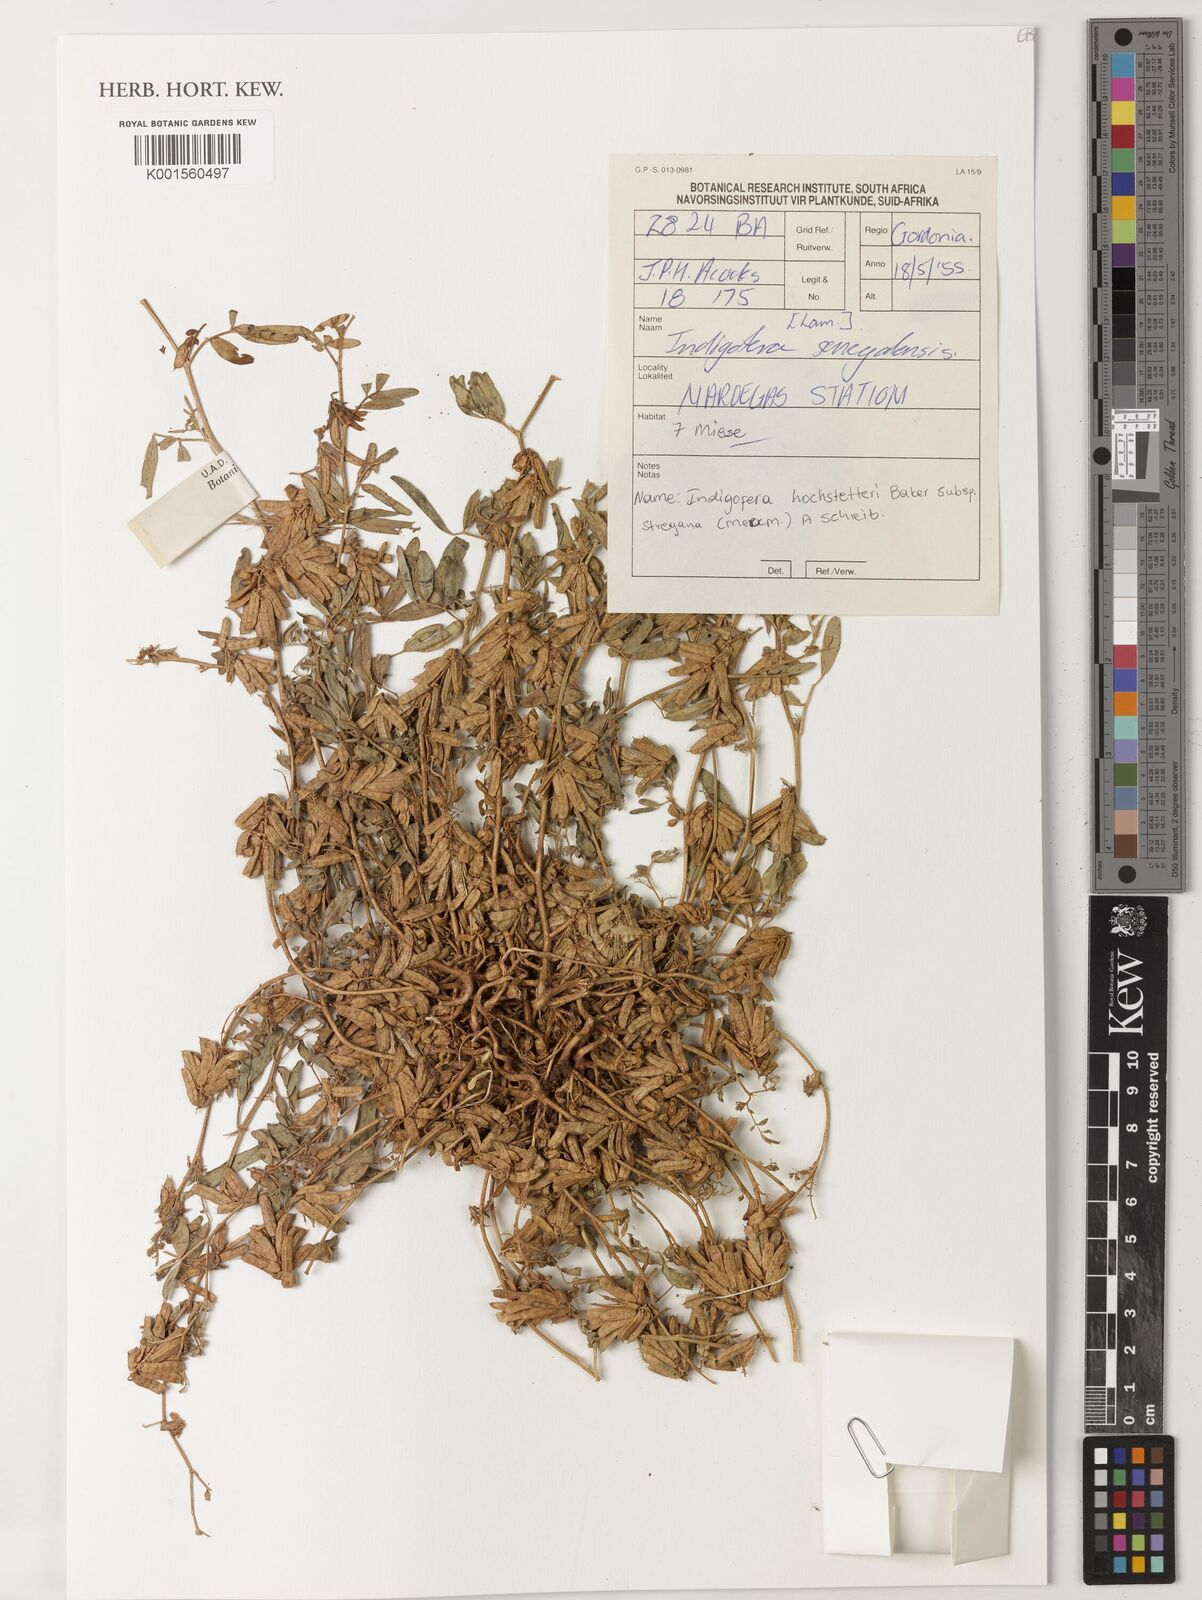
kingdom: Plantae
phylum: Tracheophyta
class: Magnoliopsida
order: Fabales
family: Fabaceae
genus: Indigofera
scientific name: Indigofera senegalensis
